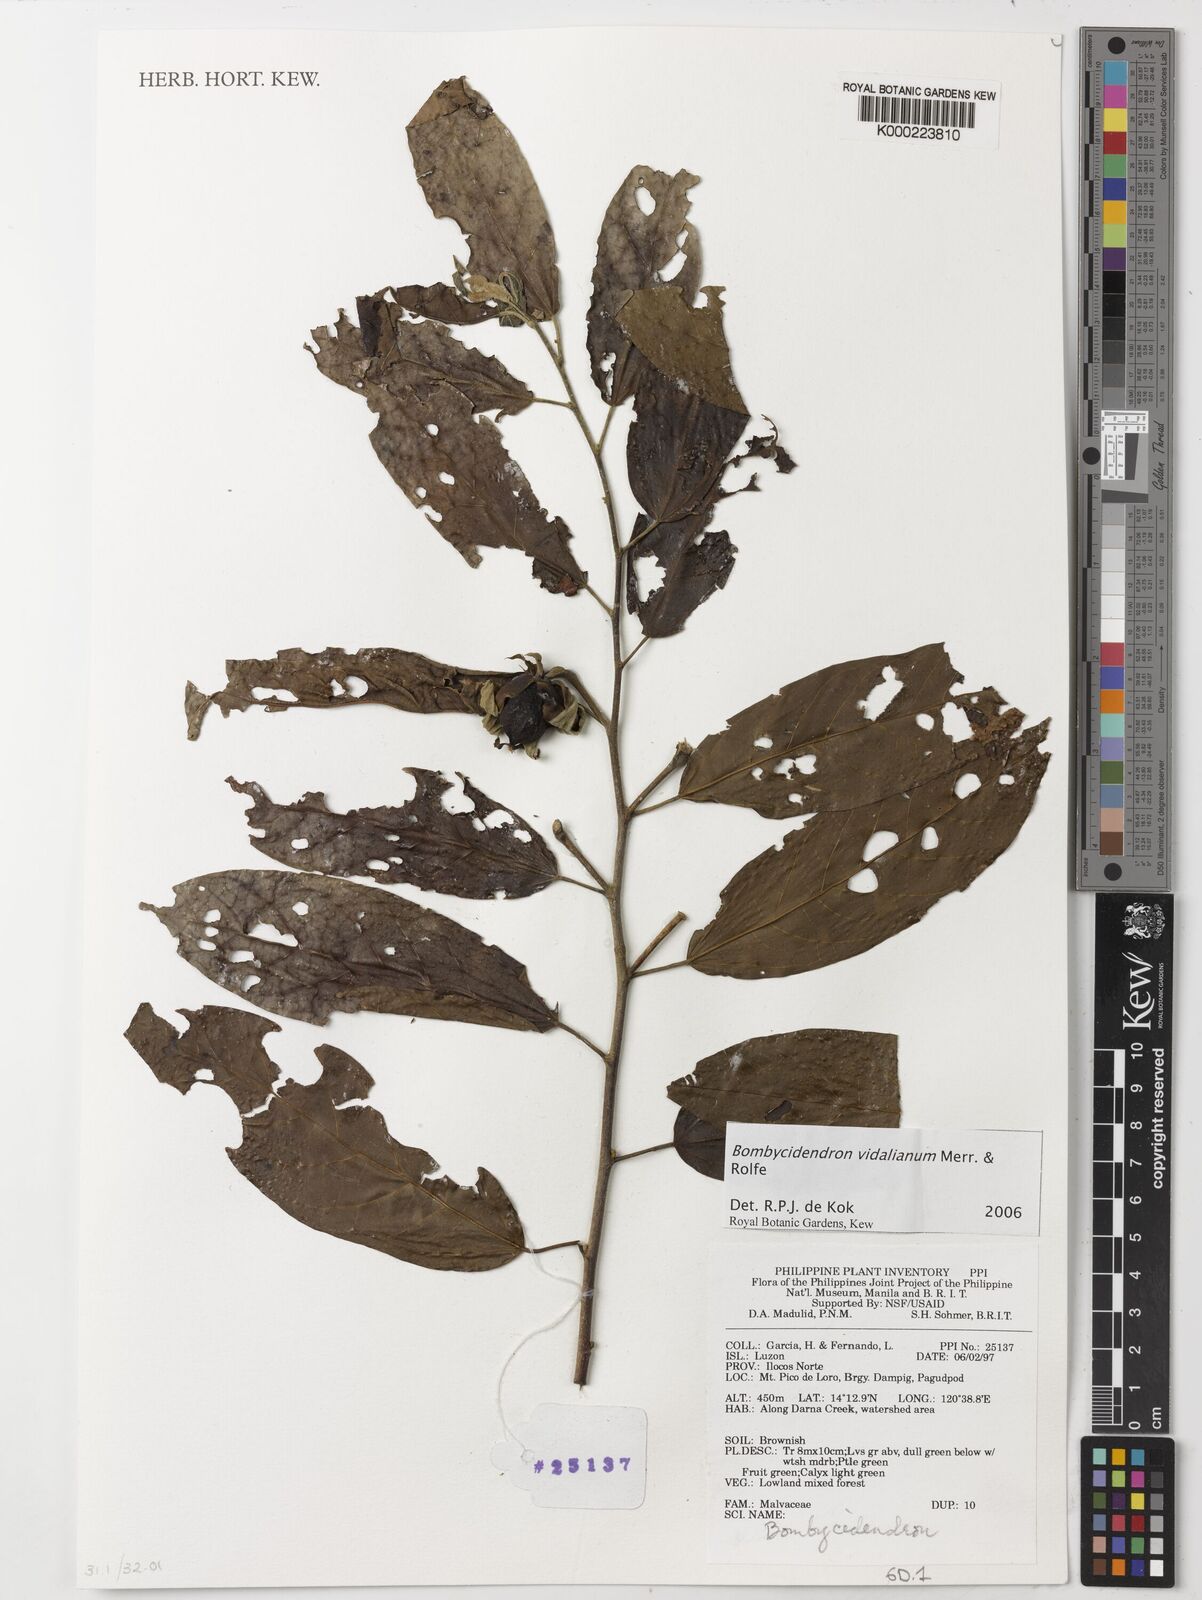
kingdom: Plantae
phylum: Tracheophyta
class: Magnoliopsida
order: Malvales
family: Malvaceae
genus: Hibiscus
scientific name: Hibiscus campylosiphon
